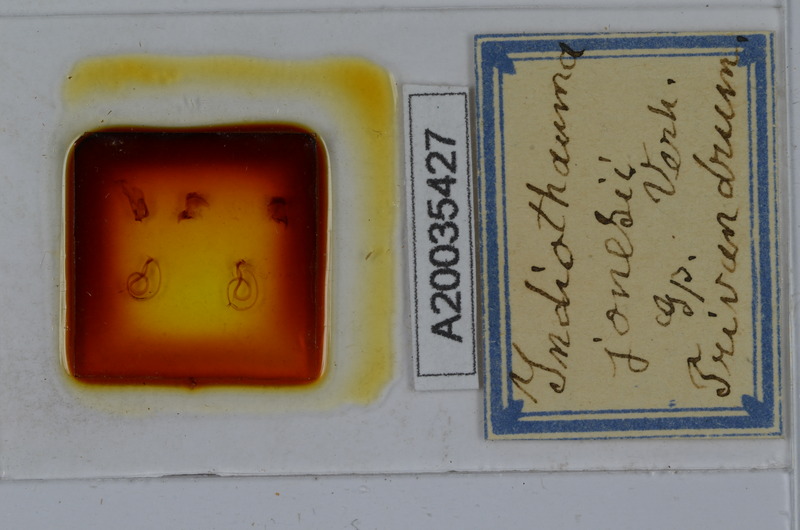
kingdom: Animalia
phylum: Arthropoda
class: Diplopoda
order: Spirostreptida
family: Harpagophoridae
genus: Harpurostreptus
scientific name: Harpurostreptus jonesi
